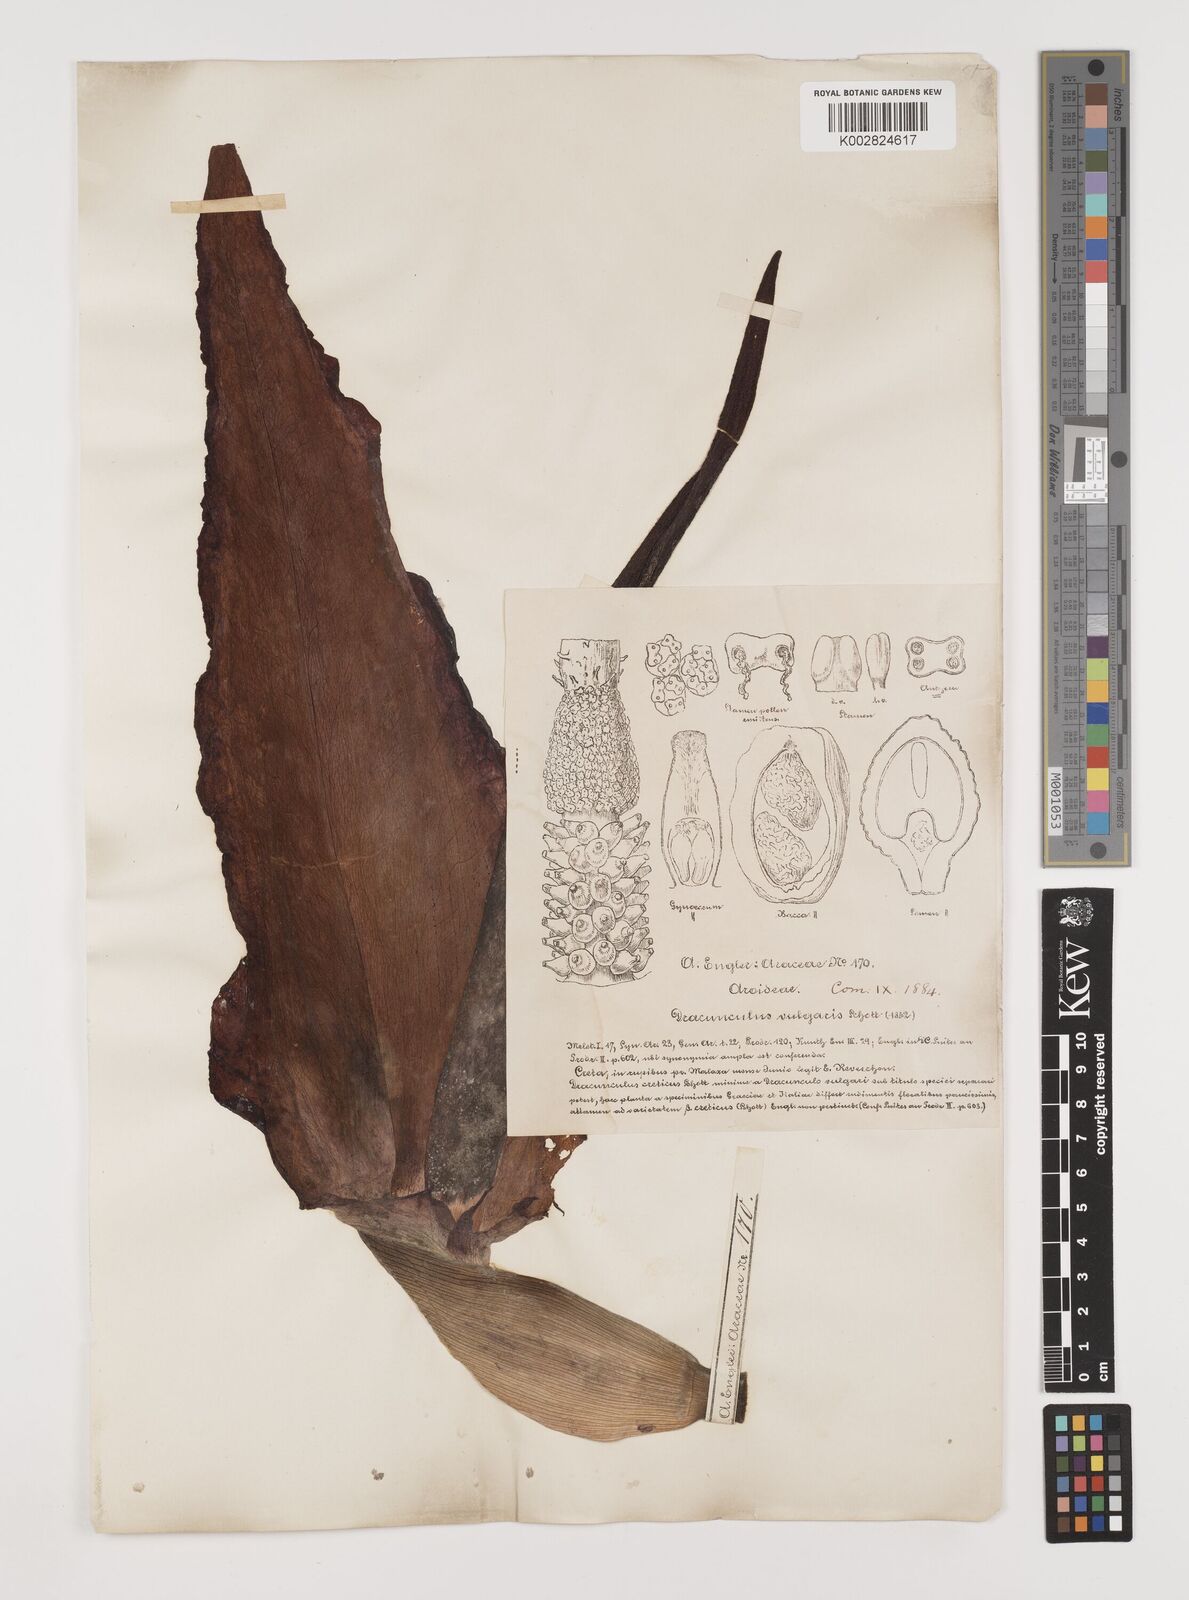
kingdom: Plantae
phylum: Tracheophyta
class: Liliopsida
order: Alismatales
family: Araceae
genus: Dracunculus
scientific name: Dracunculus vulgaris
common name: Dragon arum
